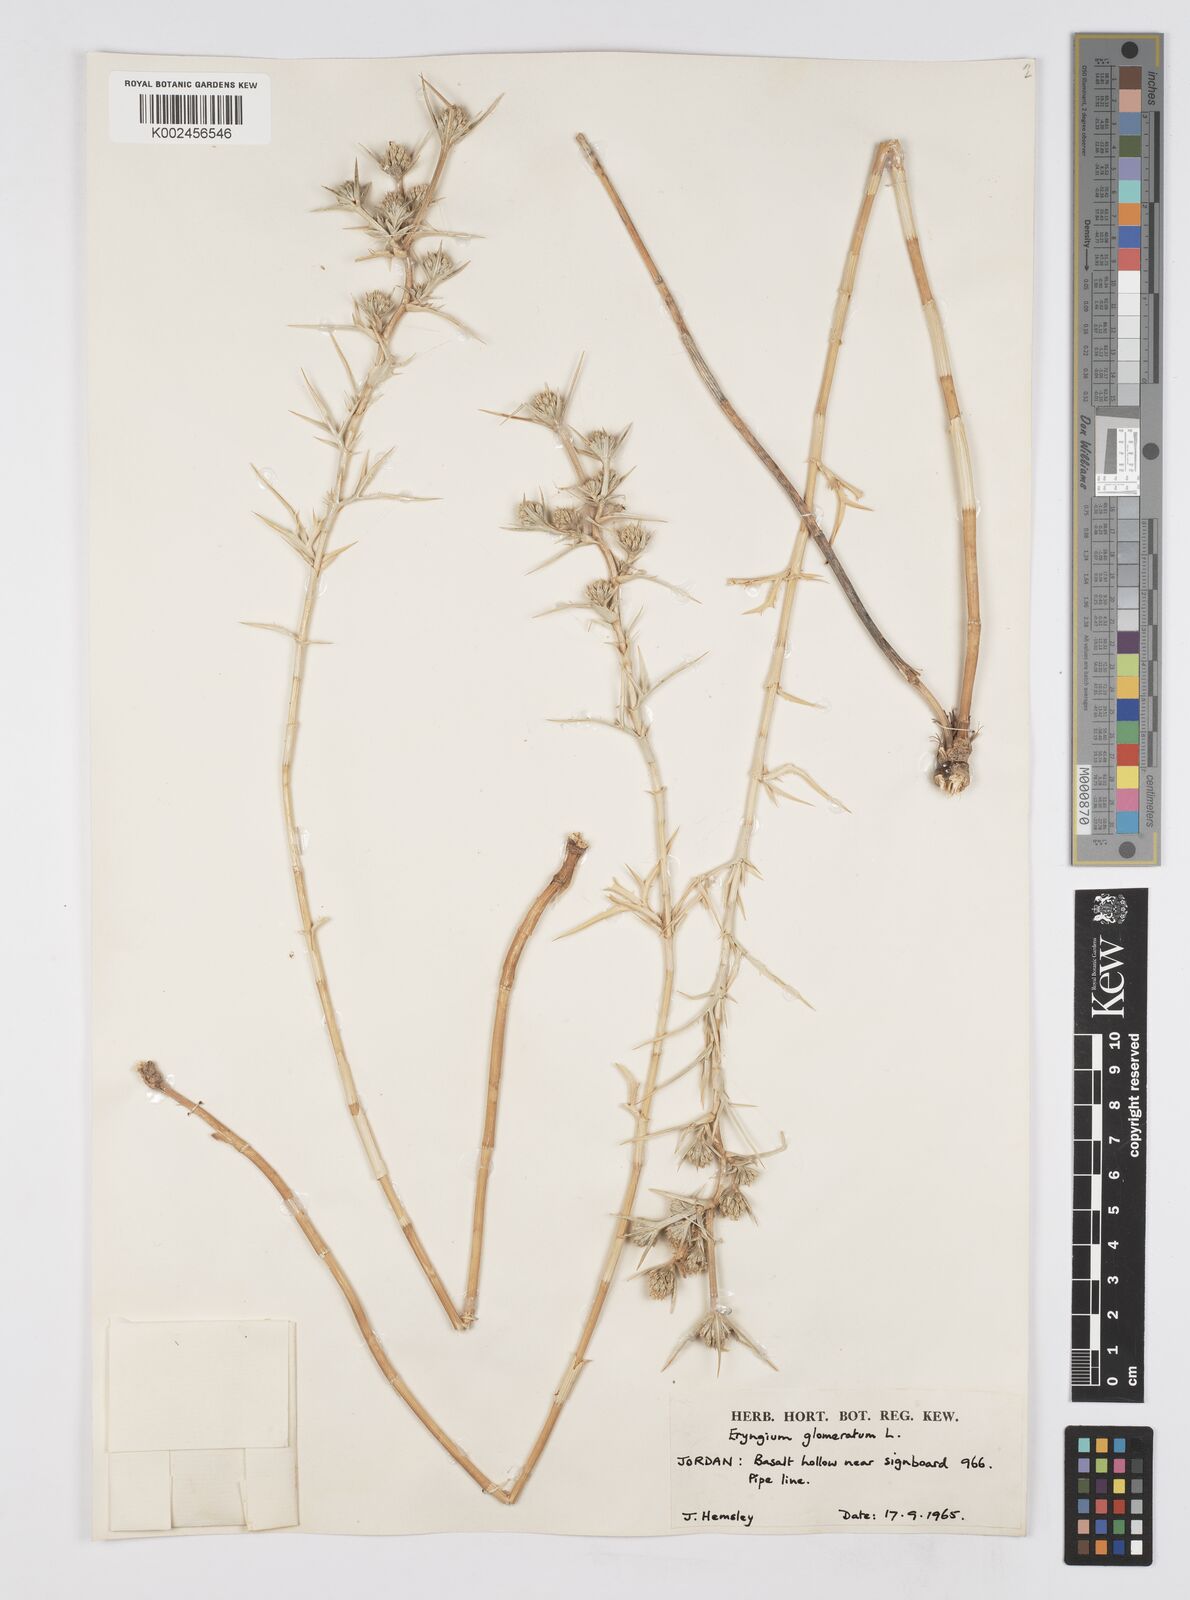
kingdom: Plantae
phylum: Tracheophyta
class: Magnoliopsida
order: Apiales
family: Apiaceae
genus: Eryngium
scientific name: Eryngium glomeratum
